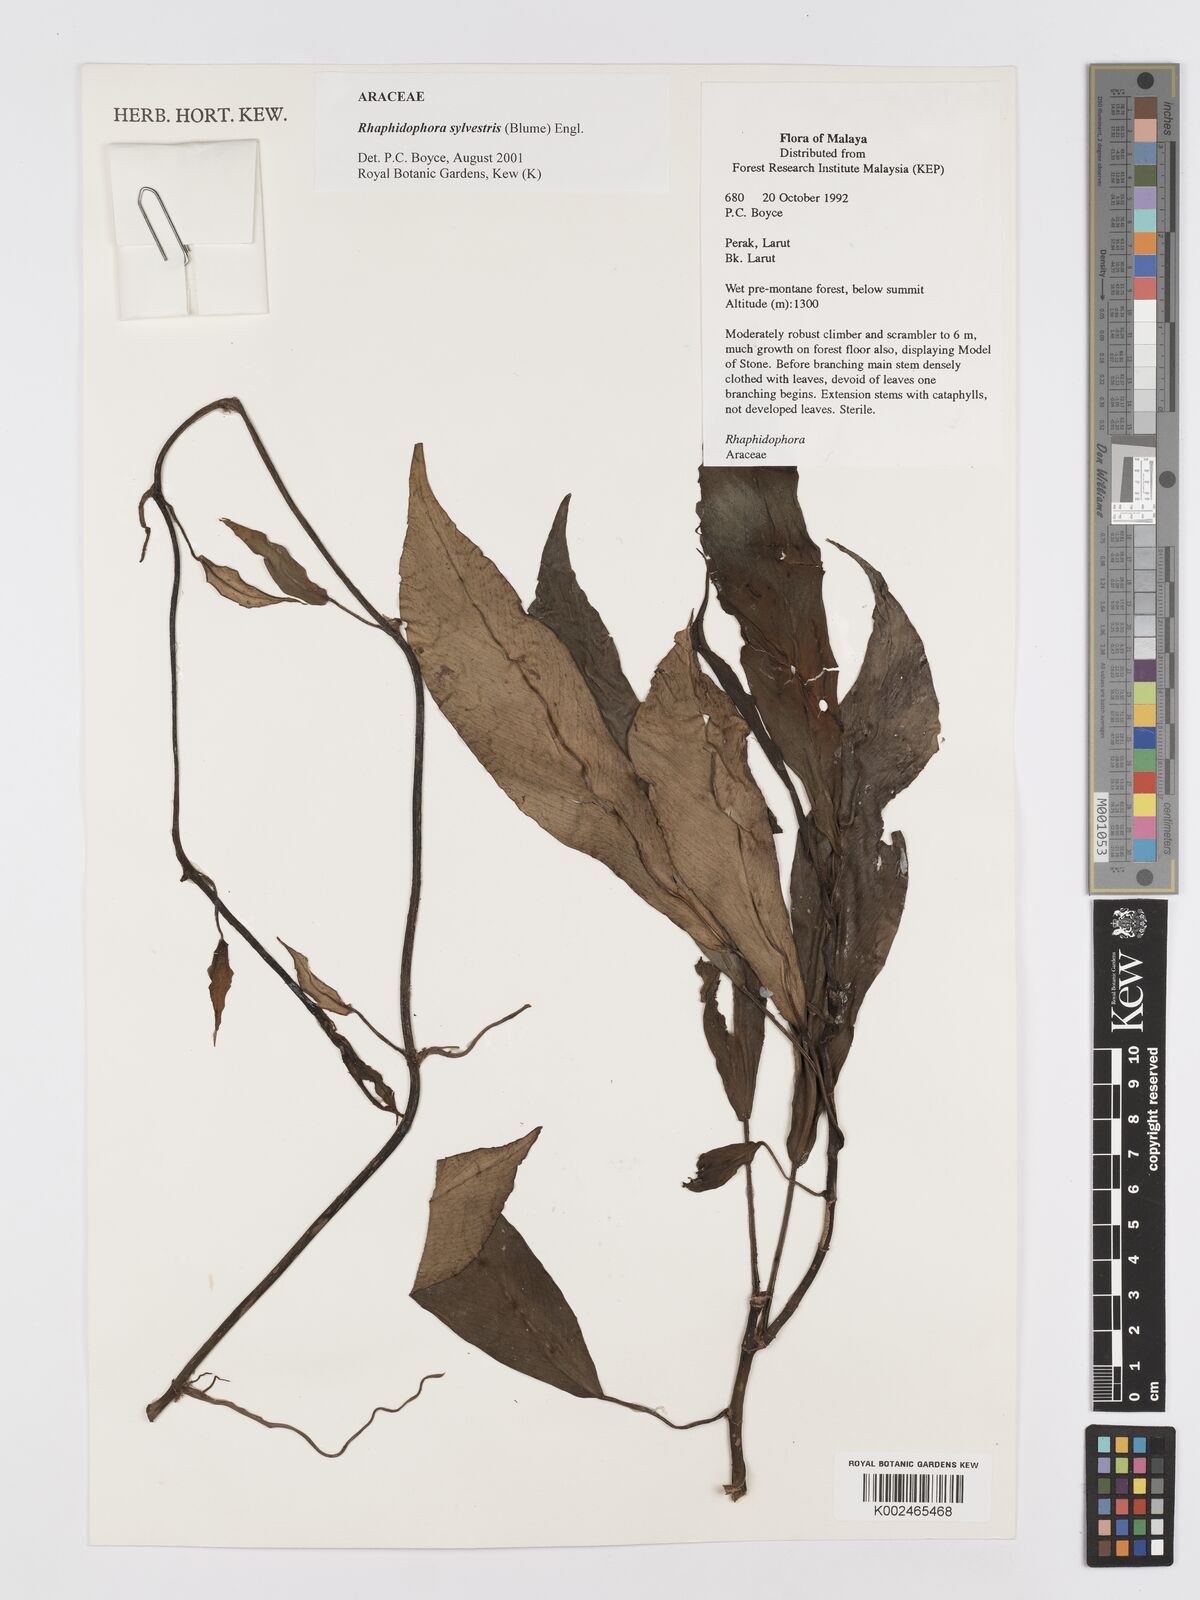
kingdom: Plantae
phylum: Tracheophyta
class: Liliopsida
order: Alismatales
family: Araceae
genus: Rhaphidophora
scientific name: Rhaphidophora sylvestris
